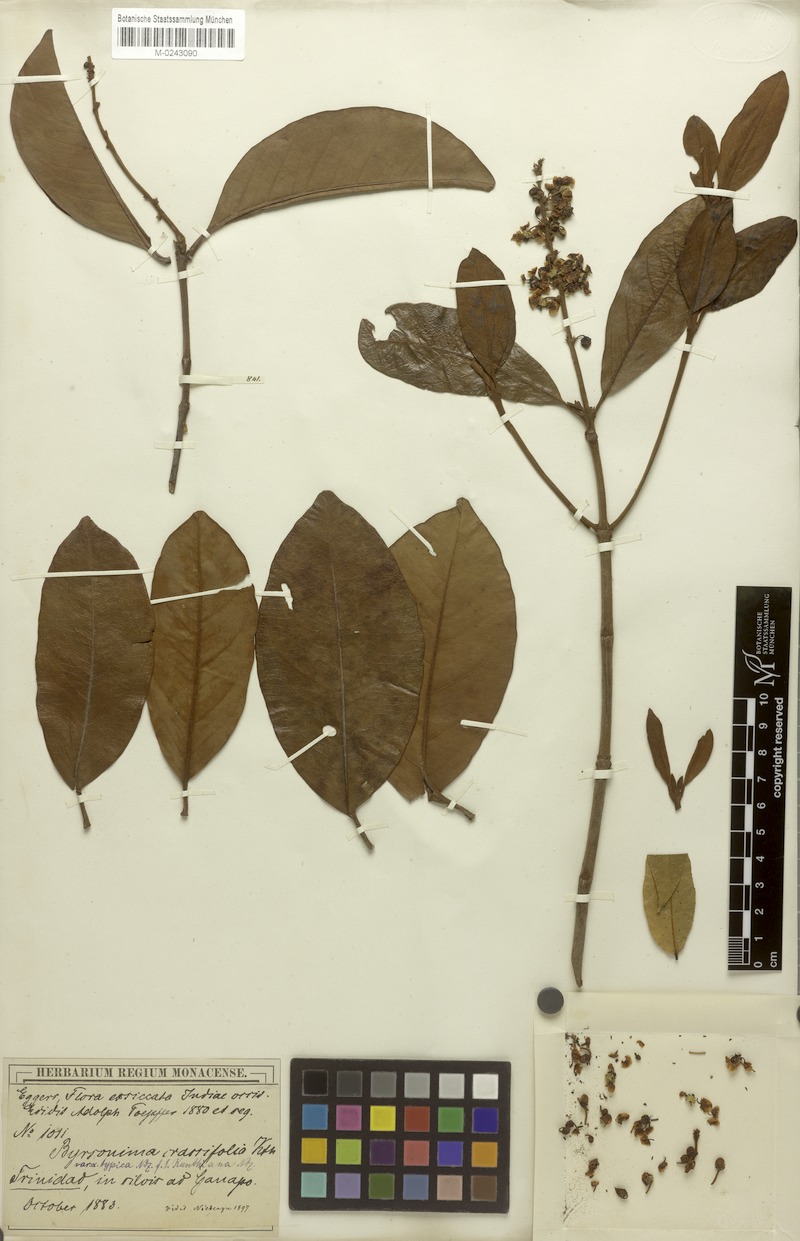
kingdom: Plantae
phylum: Tracheophyta
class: Magnoliopsida
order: Malpighiales
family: Malpighiaceae
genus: Byrsonima
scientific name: Byrsonima crassifolia
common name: Golden spoon
